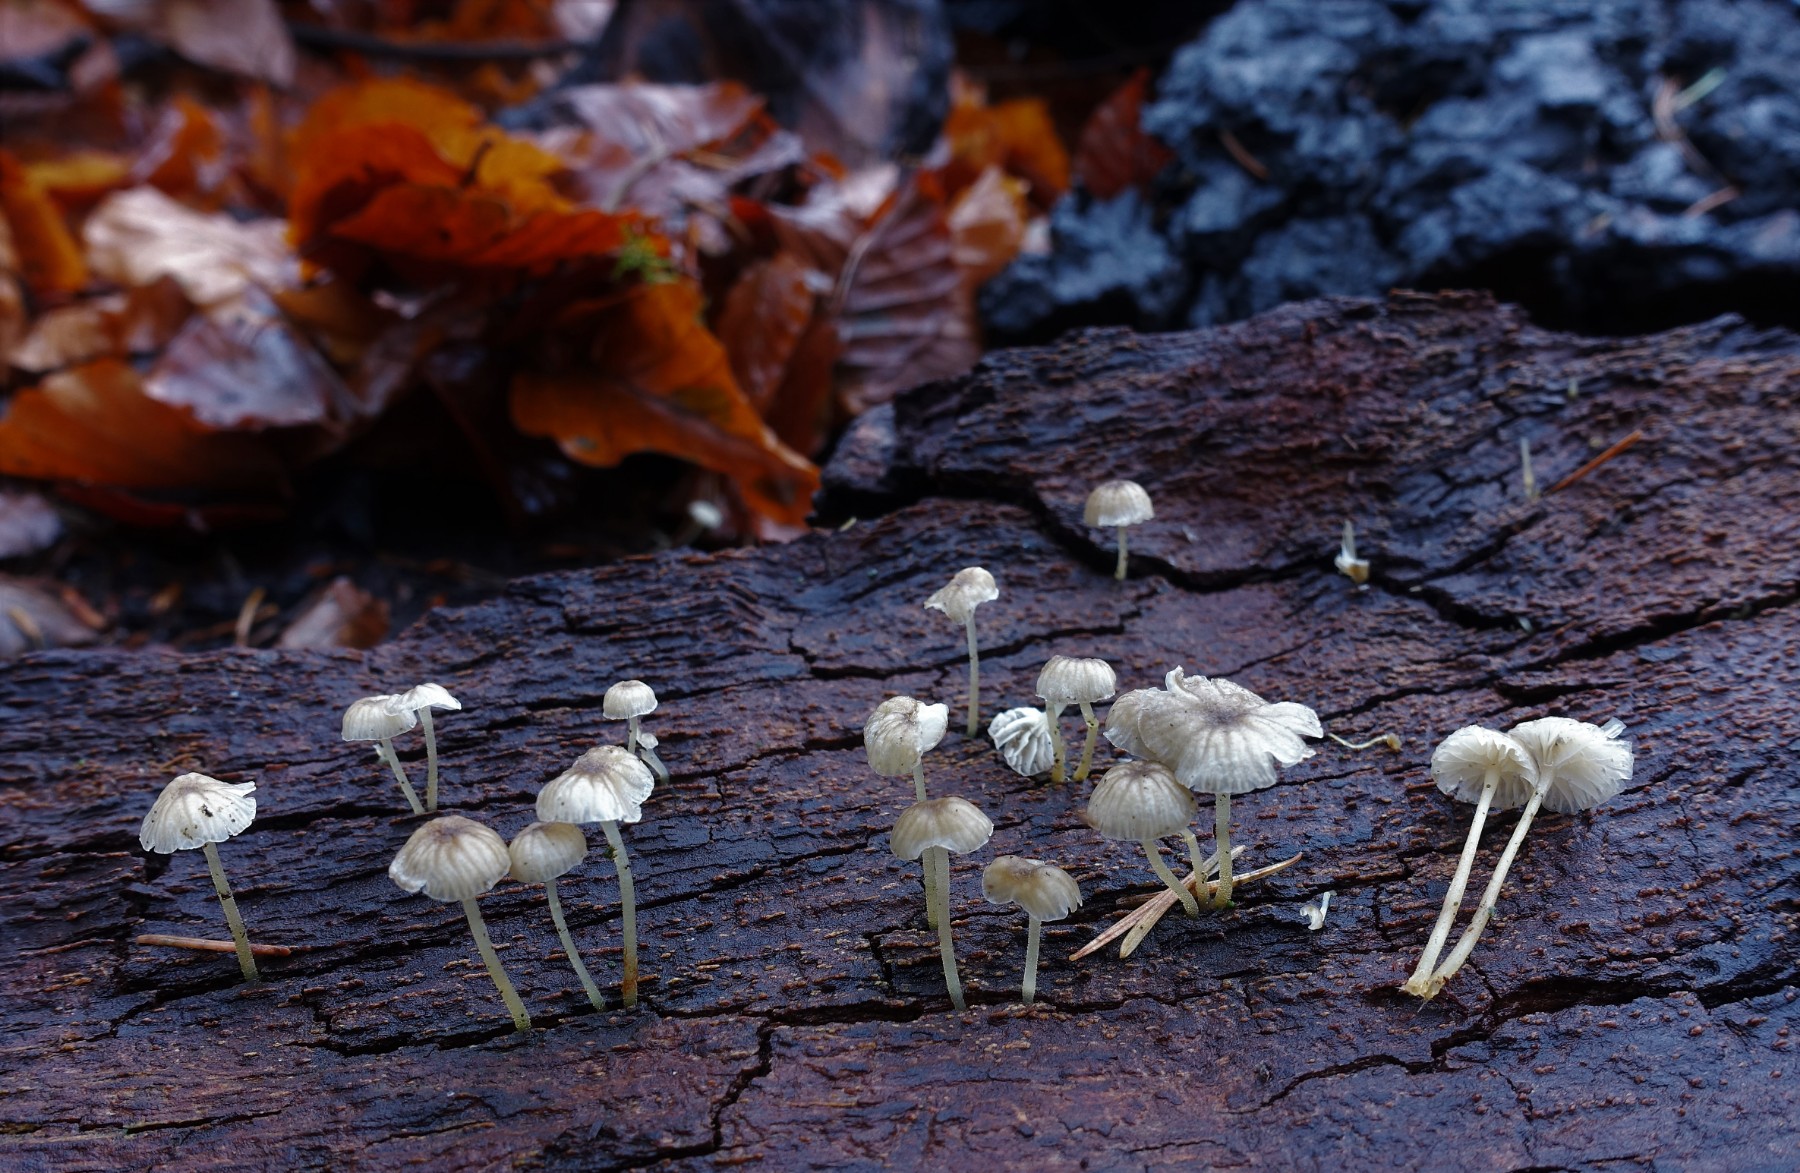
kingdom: Fungi
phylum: Basidiomycota
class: Agaricomycetes
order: Agaricales
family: Porotheleaceae
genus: Phloeomana
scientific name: Phloeomana speirea
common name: kvist-huesvamp
